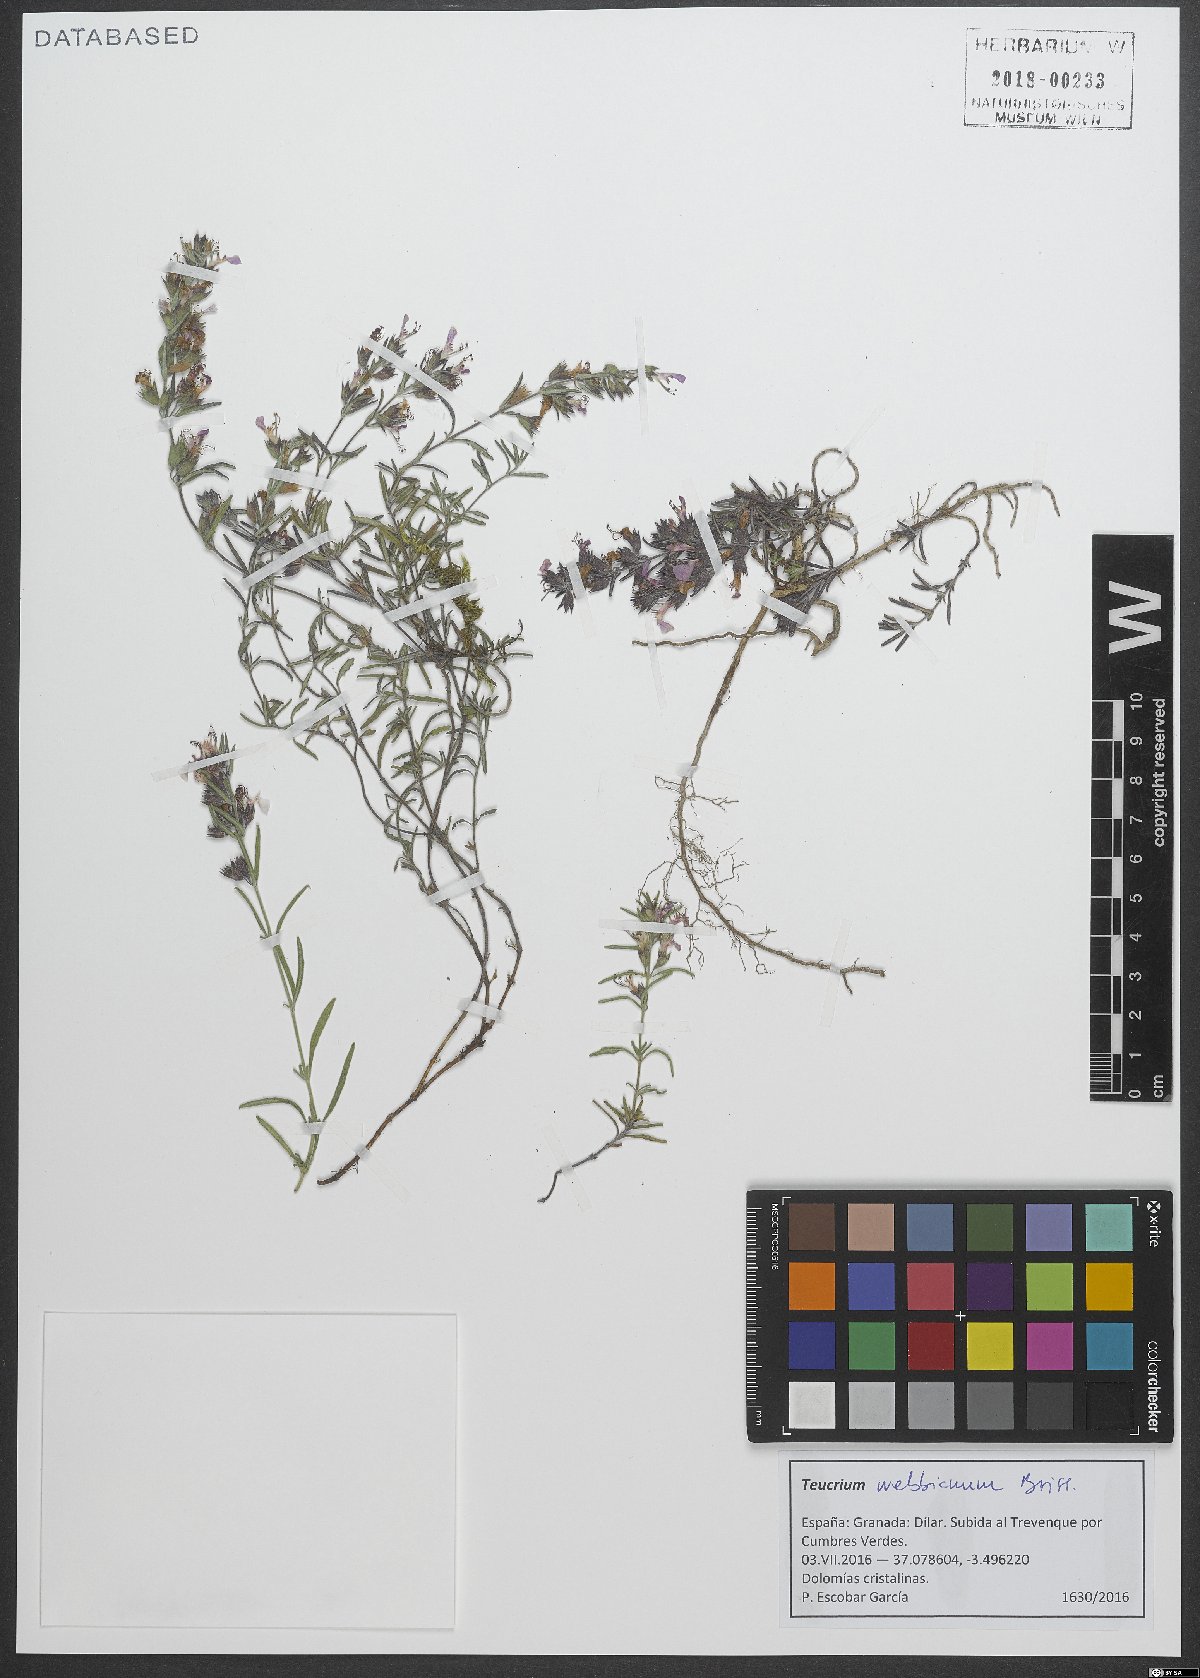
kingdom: Plantae
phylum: Tracheophyta
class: Magnoliopsida
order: Lamiales
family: Lamiaceae
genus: Teucrium
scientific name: Teucrium webbianum
